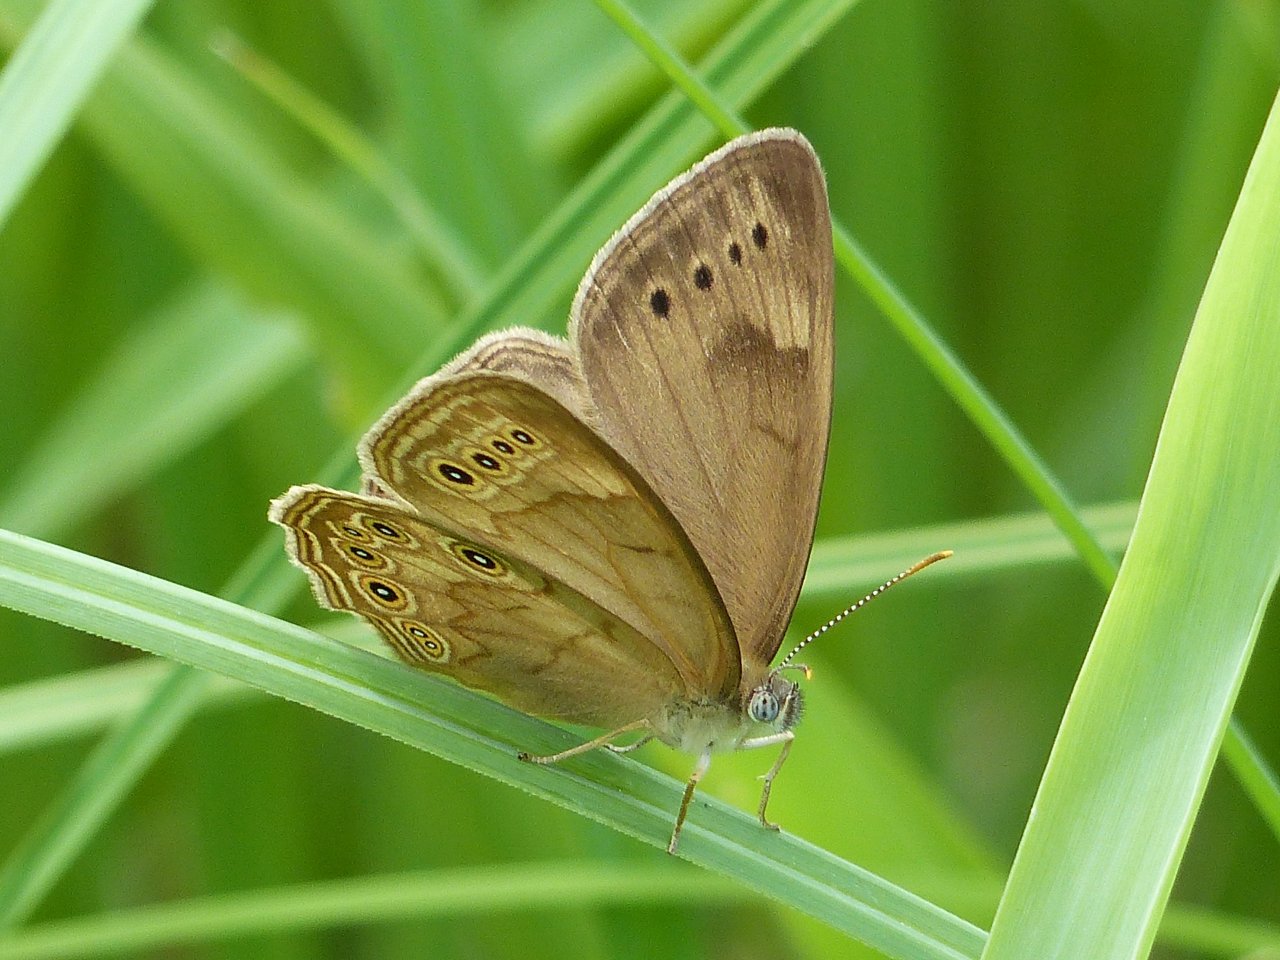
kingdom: Animalia
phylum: Arthropoda
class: Insecta
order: Lepidoptera
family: Nymphalidae
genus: Lethe
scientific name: Lethe eurydice
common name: Eyed Brown
